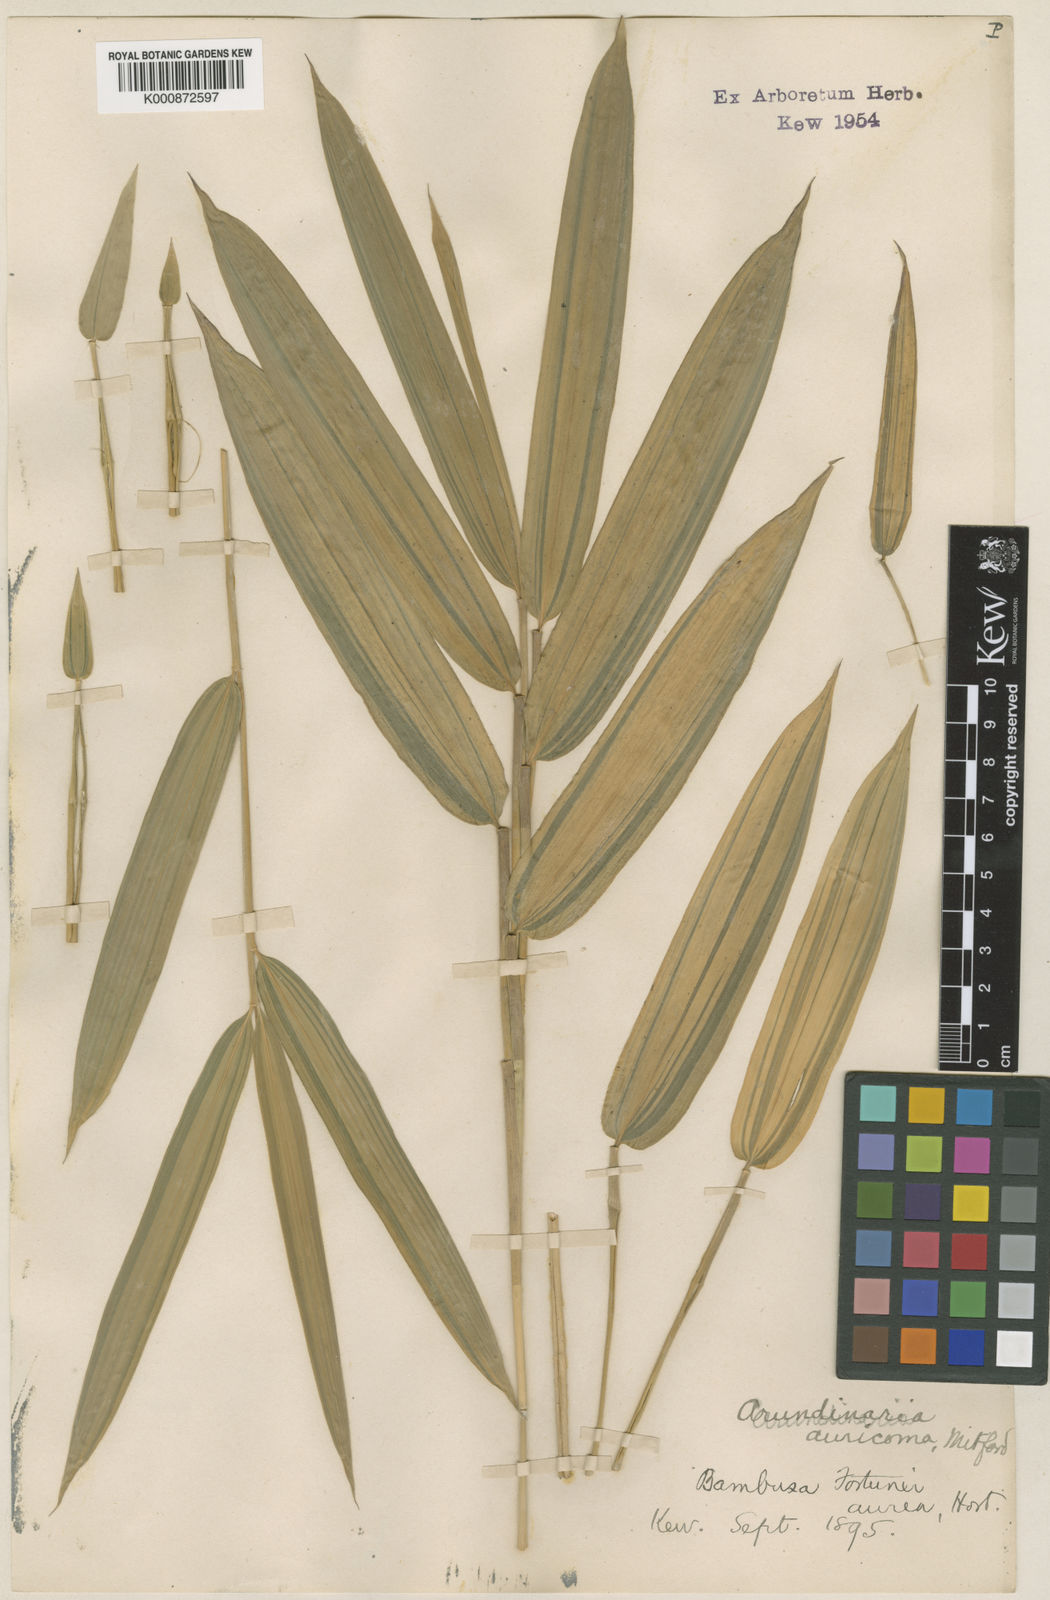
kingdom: Plantae
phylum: Tracheophyta
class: Liliopsida
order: Poales
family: Poaceae
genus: Pleioblastus
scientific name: Pleioblastus viridistriatus
